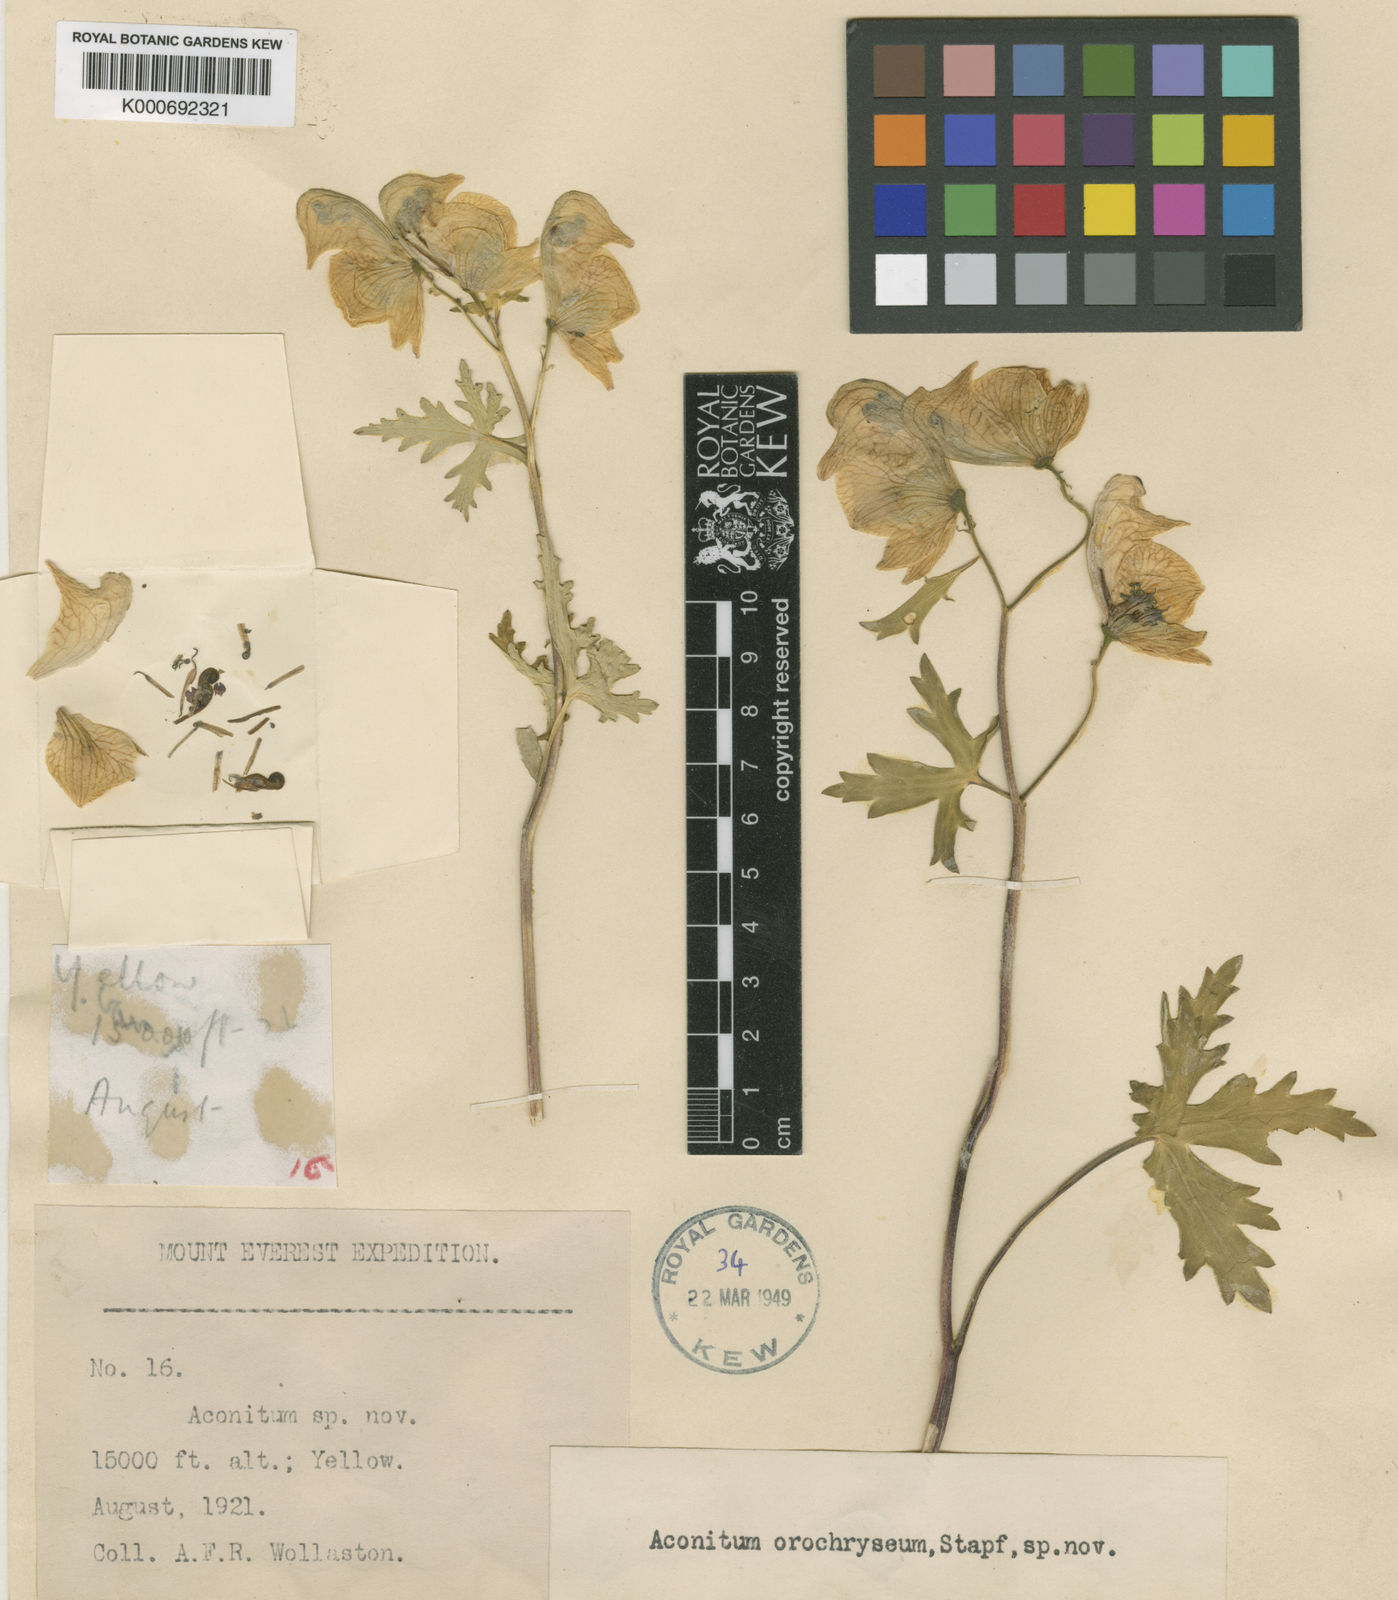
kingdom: Plantae
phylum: Tracheophyta
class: Magnoliopsida
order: Ranunculales
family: Ranunculaceae
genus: Aconitum
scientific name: Aconitum orochryseum
